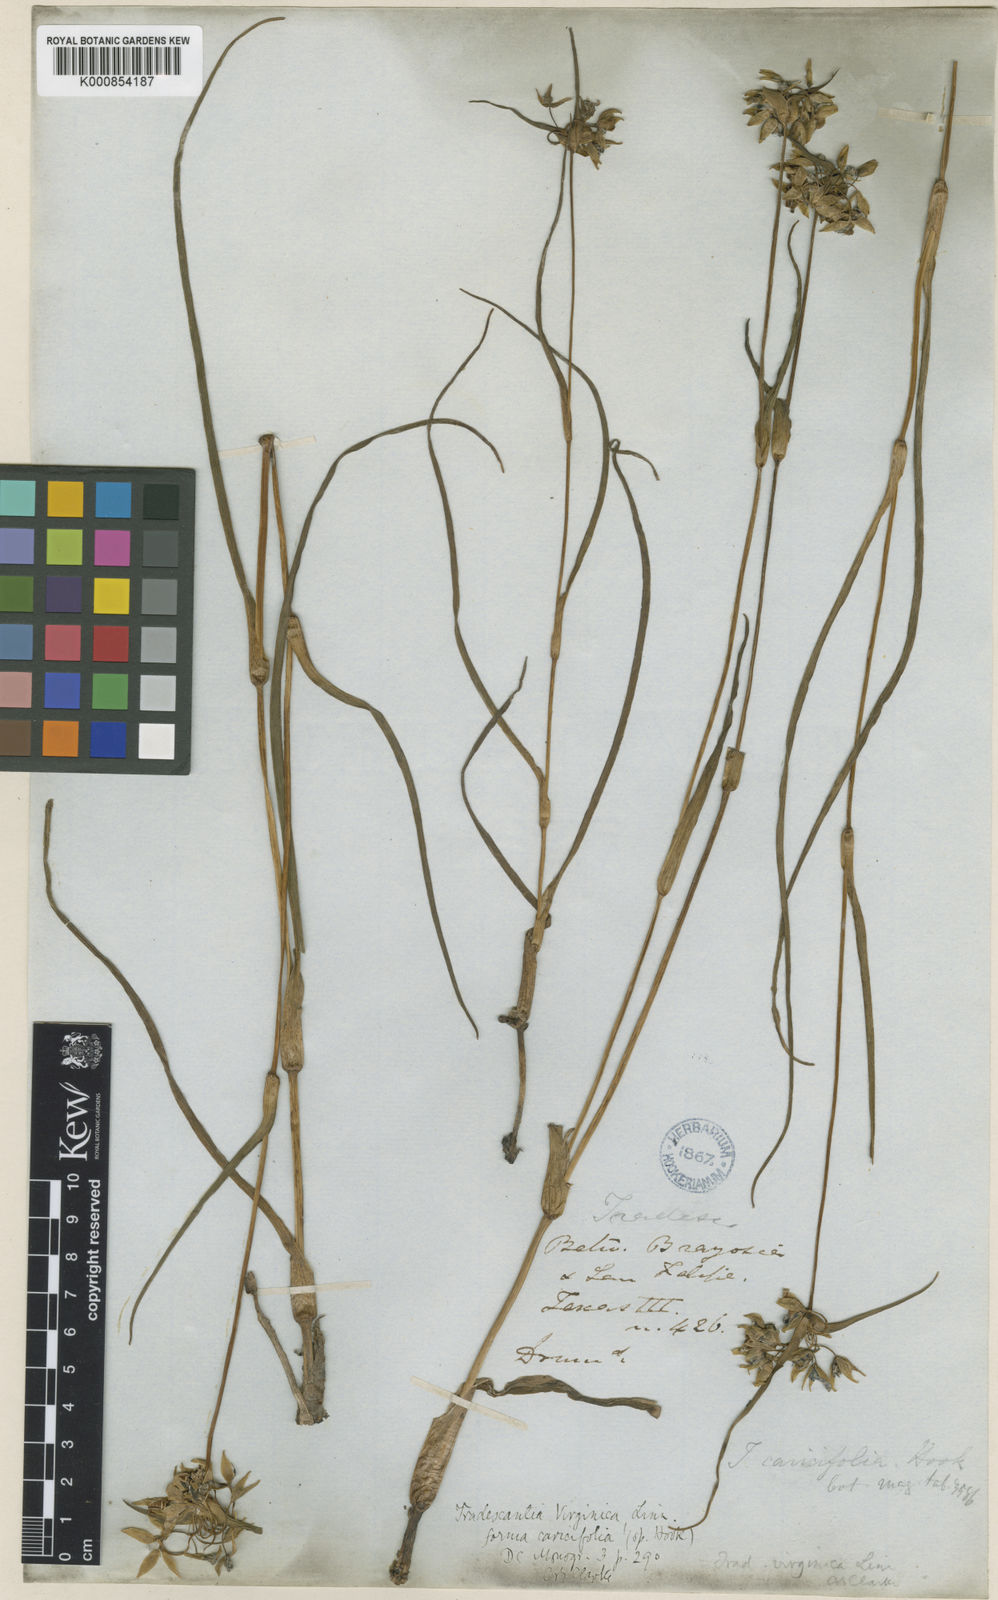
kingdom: Plantae
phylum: Tracheophyta
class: Liliopsida
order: Commelinales
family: Commelinaceae
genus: Tradescantia
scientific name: Tradescantia ohiensis
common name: Ohio spiderwort
